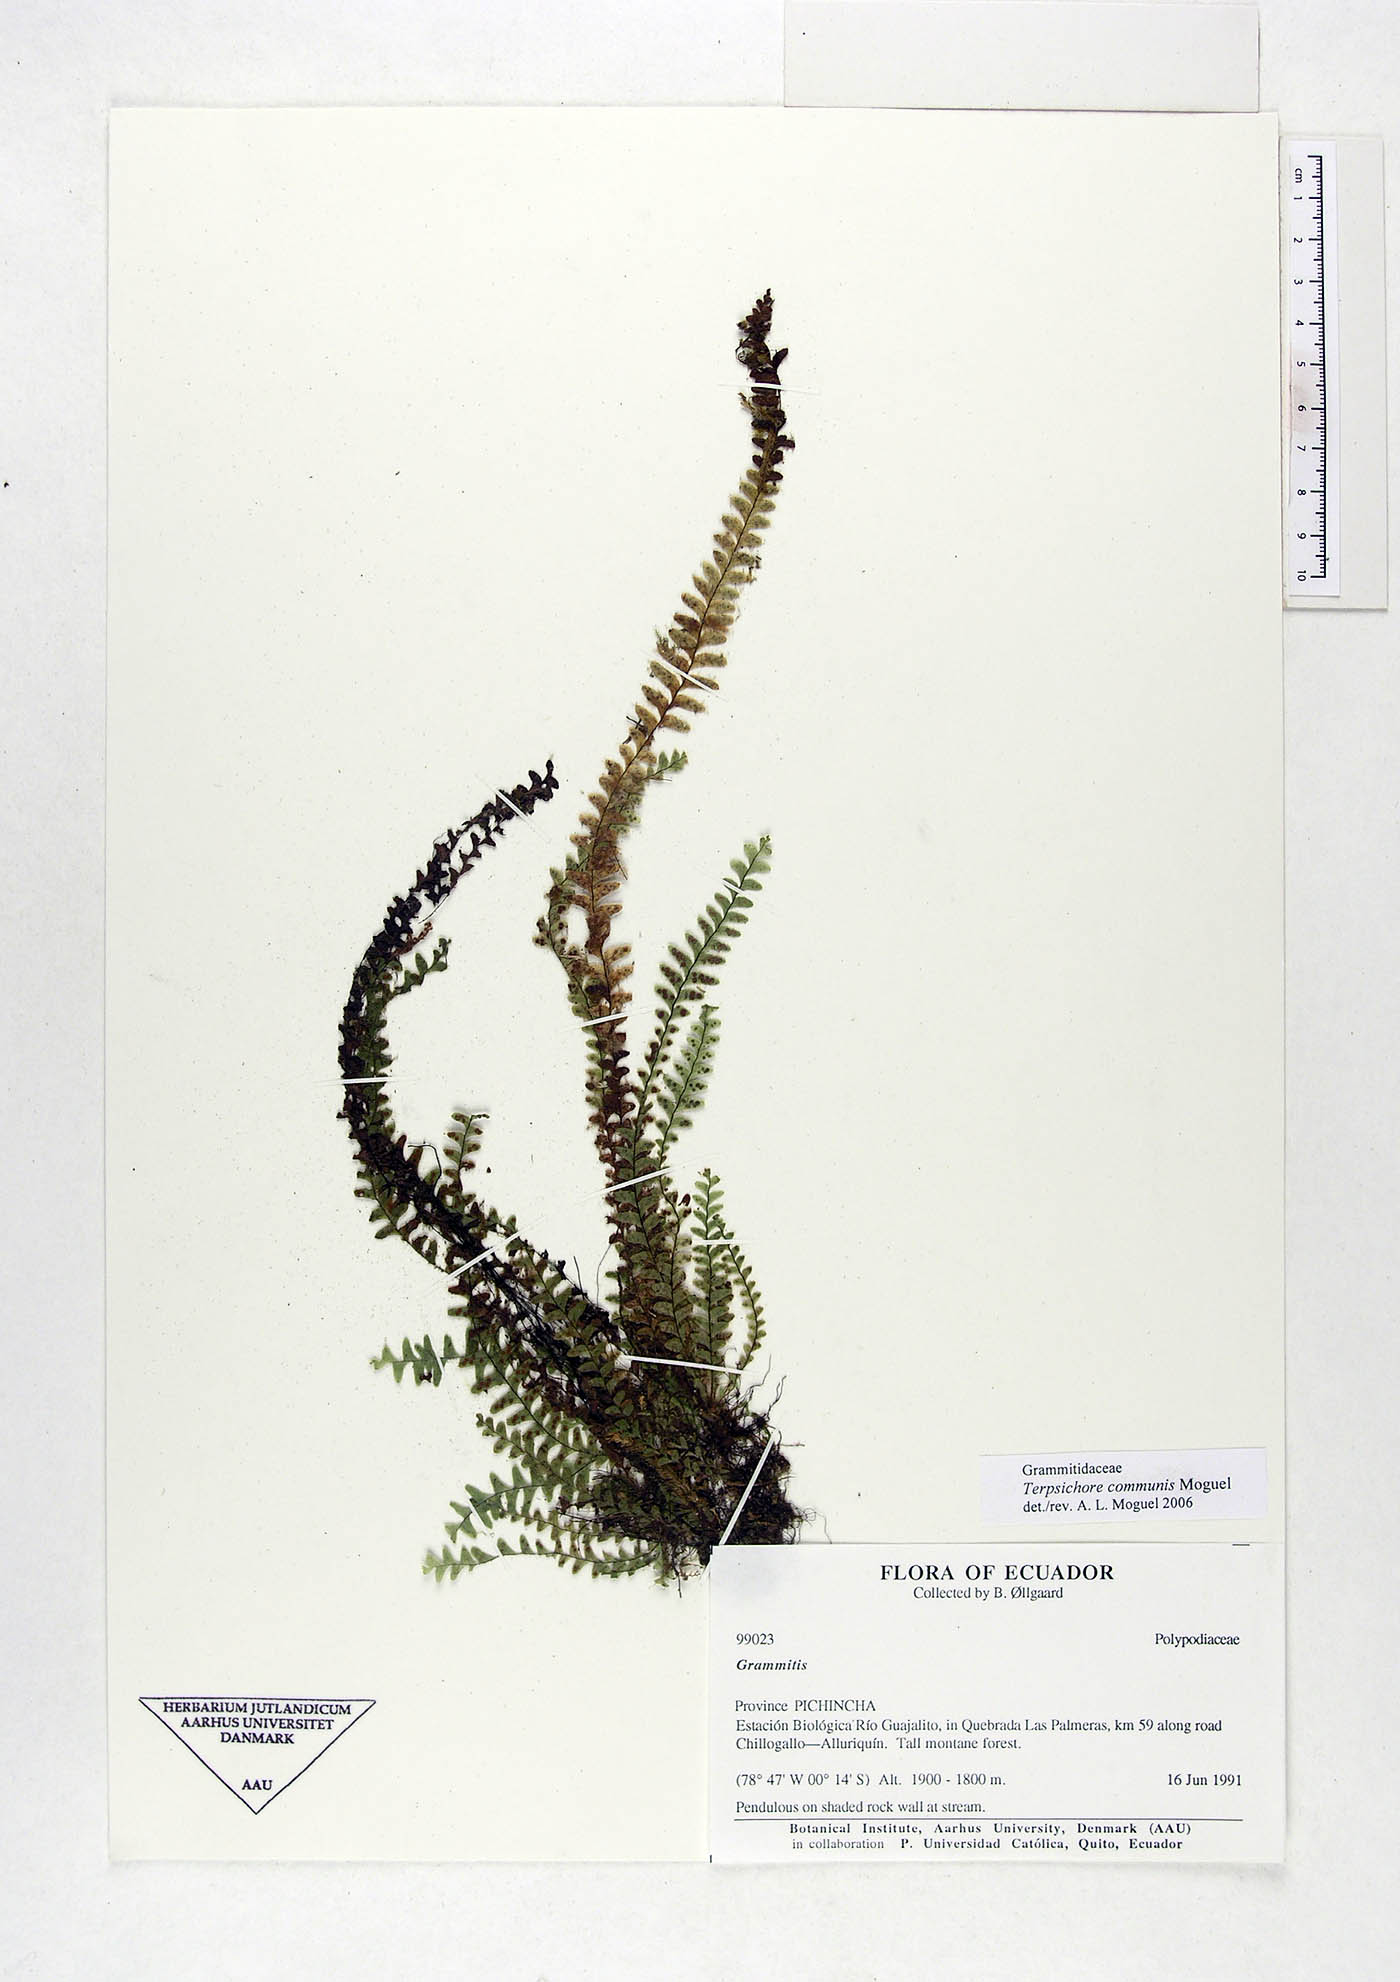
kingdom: Plantae
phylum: Tracheophyta
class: Polypodiopsida
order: Polypodiales
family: Polypodiaceae
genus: Terpsichore
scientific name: Terpsichore communis
